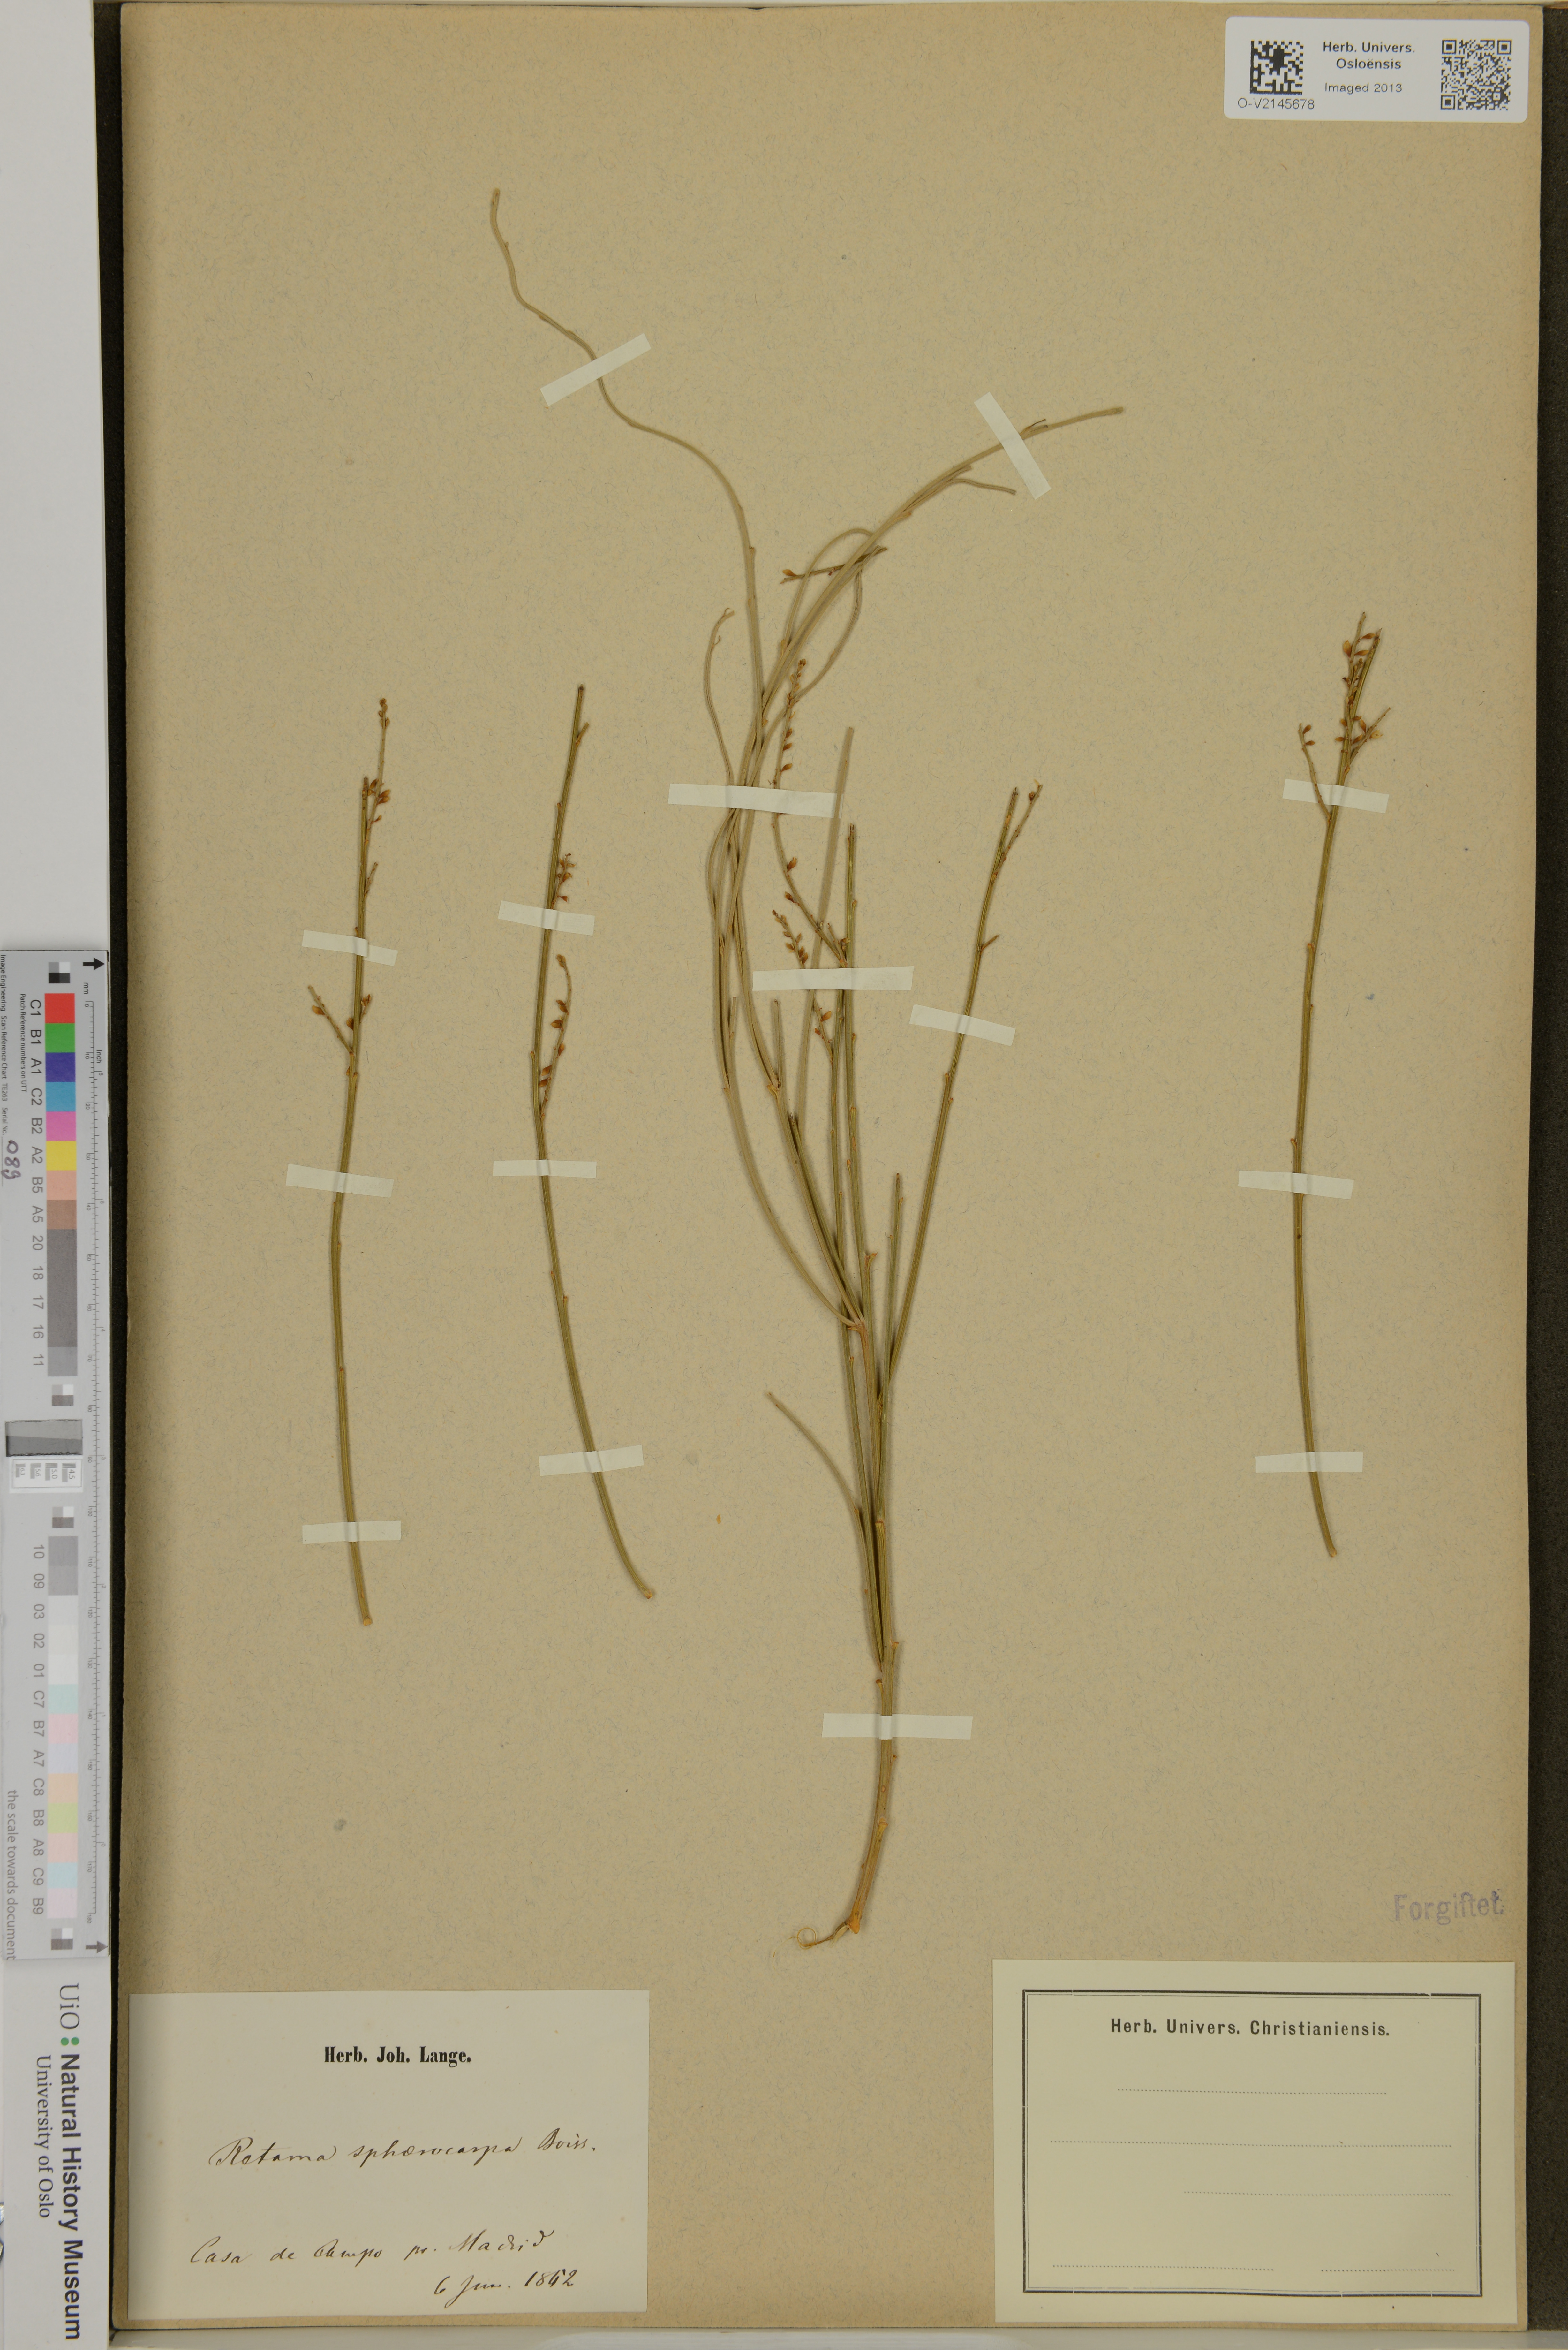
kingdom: Plantae
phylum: Tracheophyta
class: Magnoliopsida
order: Fabales
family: Fabaceae
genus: Retama
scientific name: Retama sphaerocarpa
